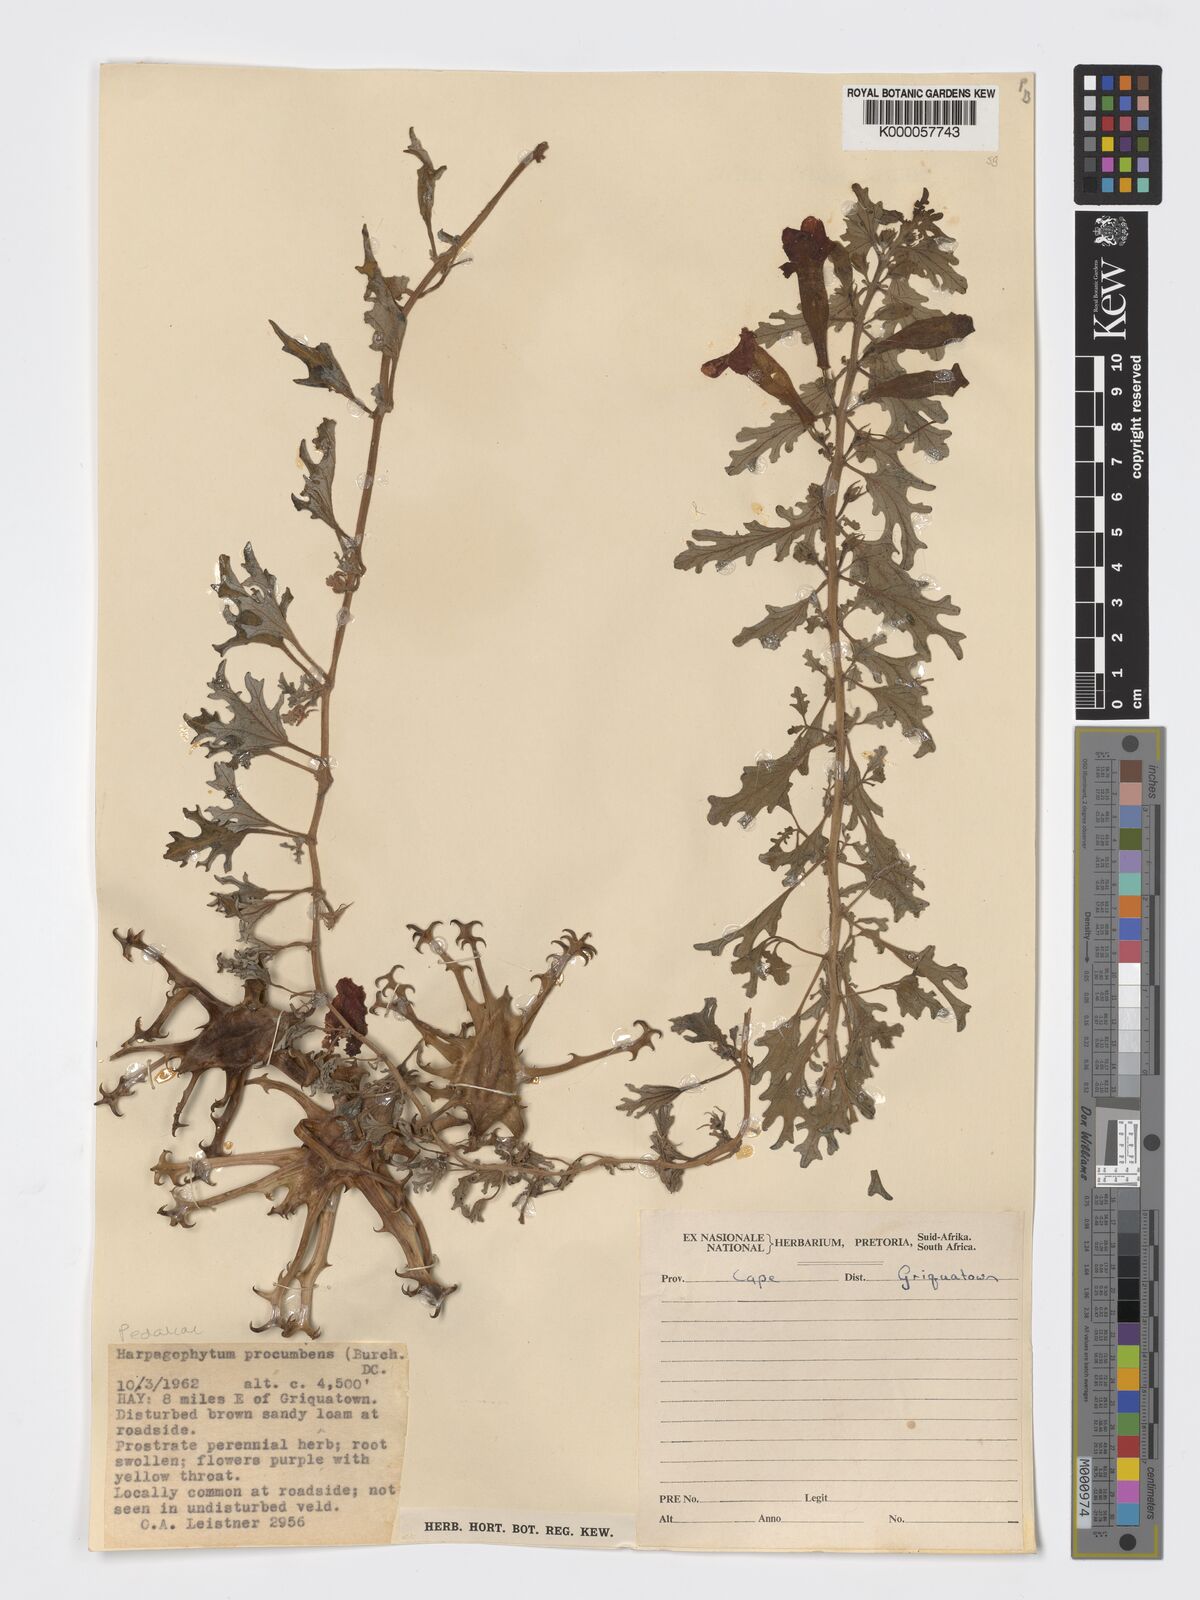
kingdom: Plantae
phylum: Tracheophyta
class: Magnoliopsida
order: Lamiales
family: Pedaliaceae
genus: Harpagophytum
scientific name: Harpagophytum procumbens
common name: Grappleplant
